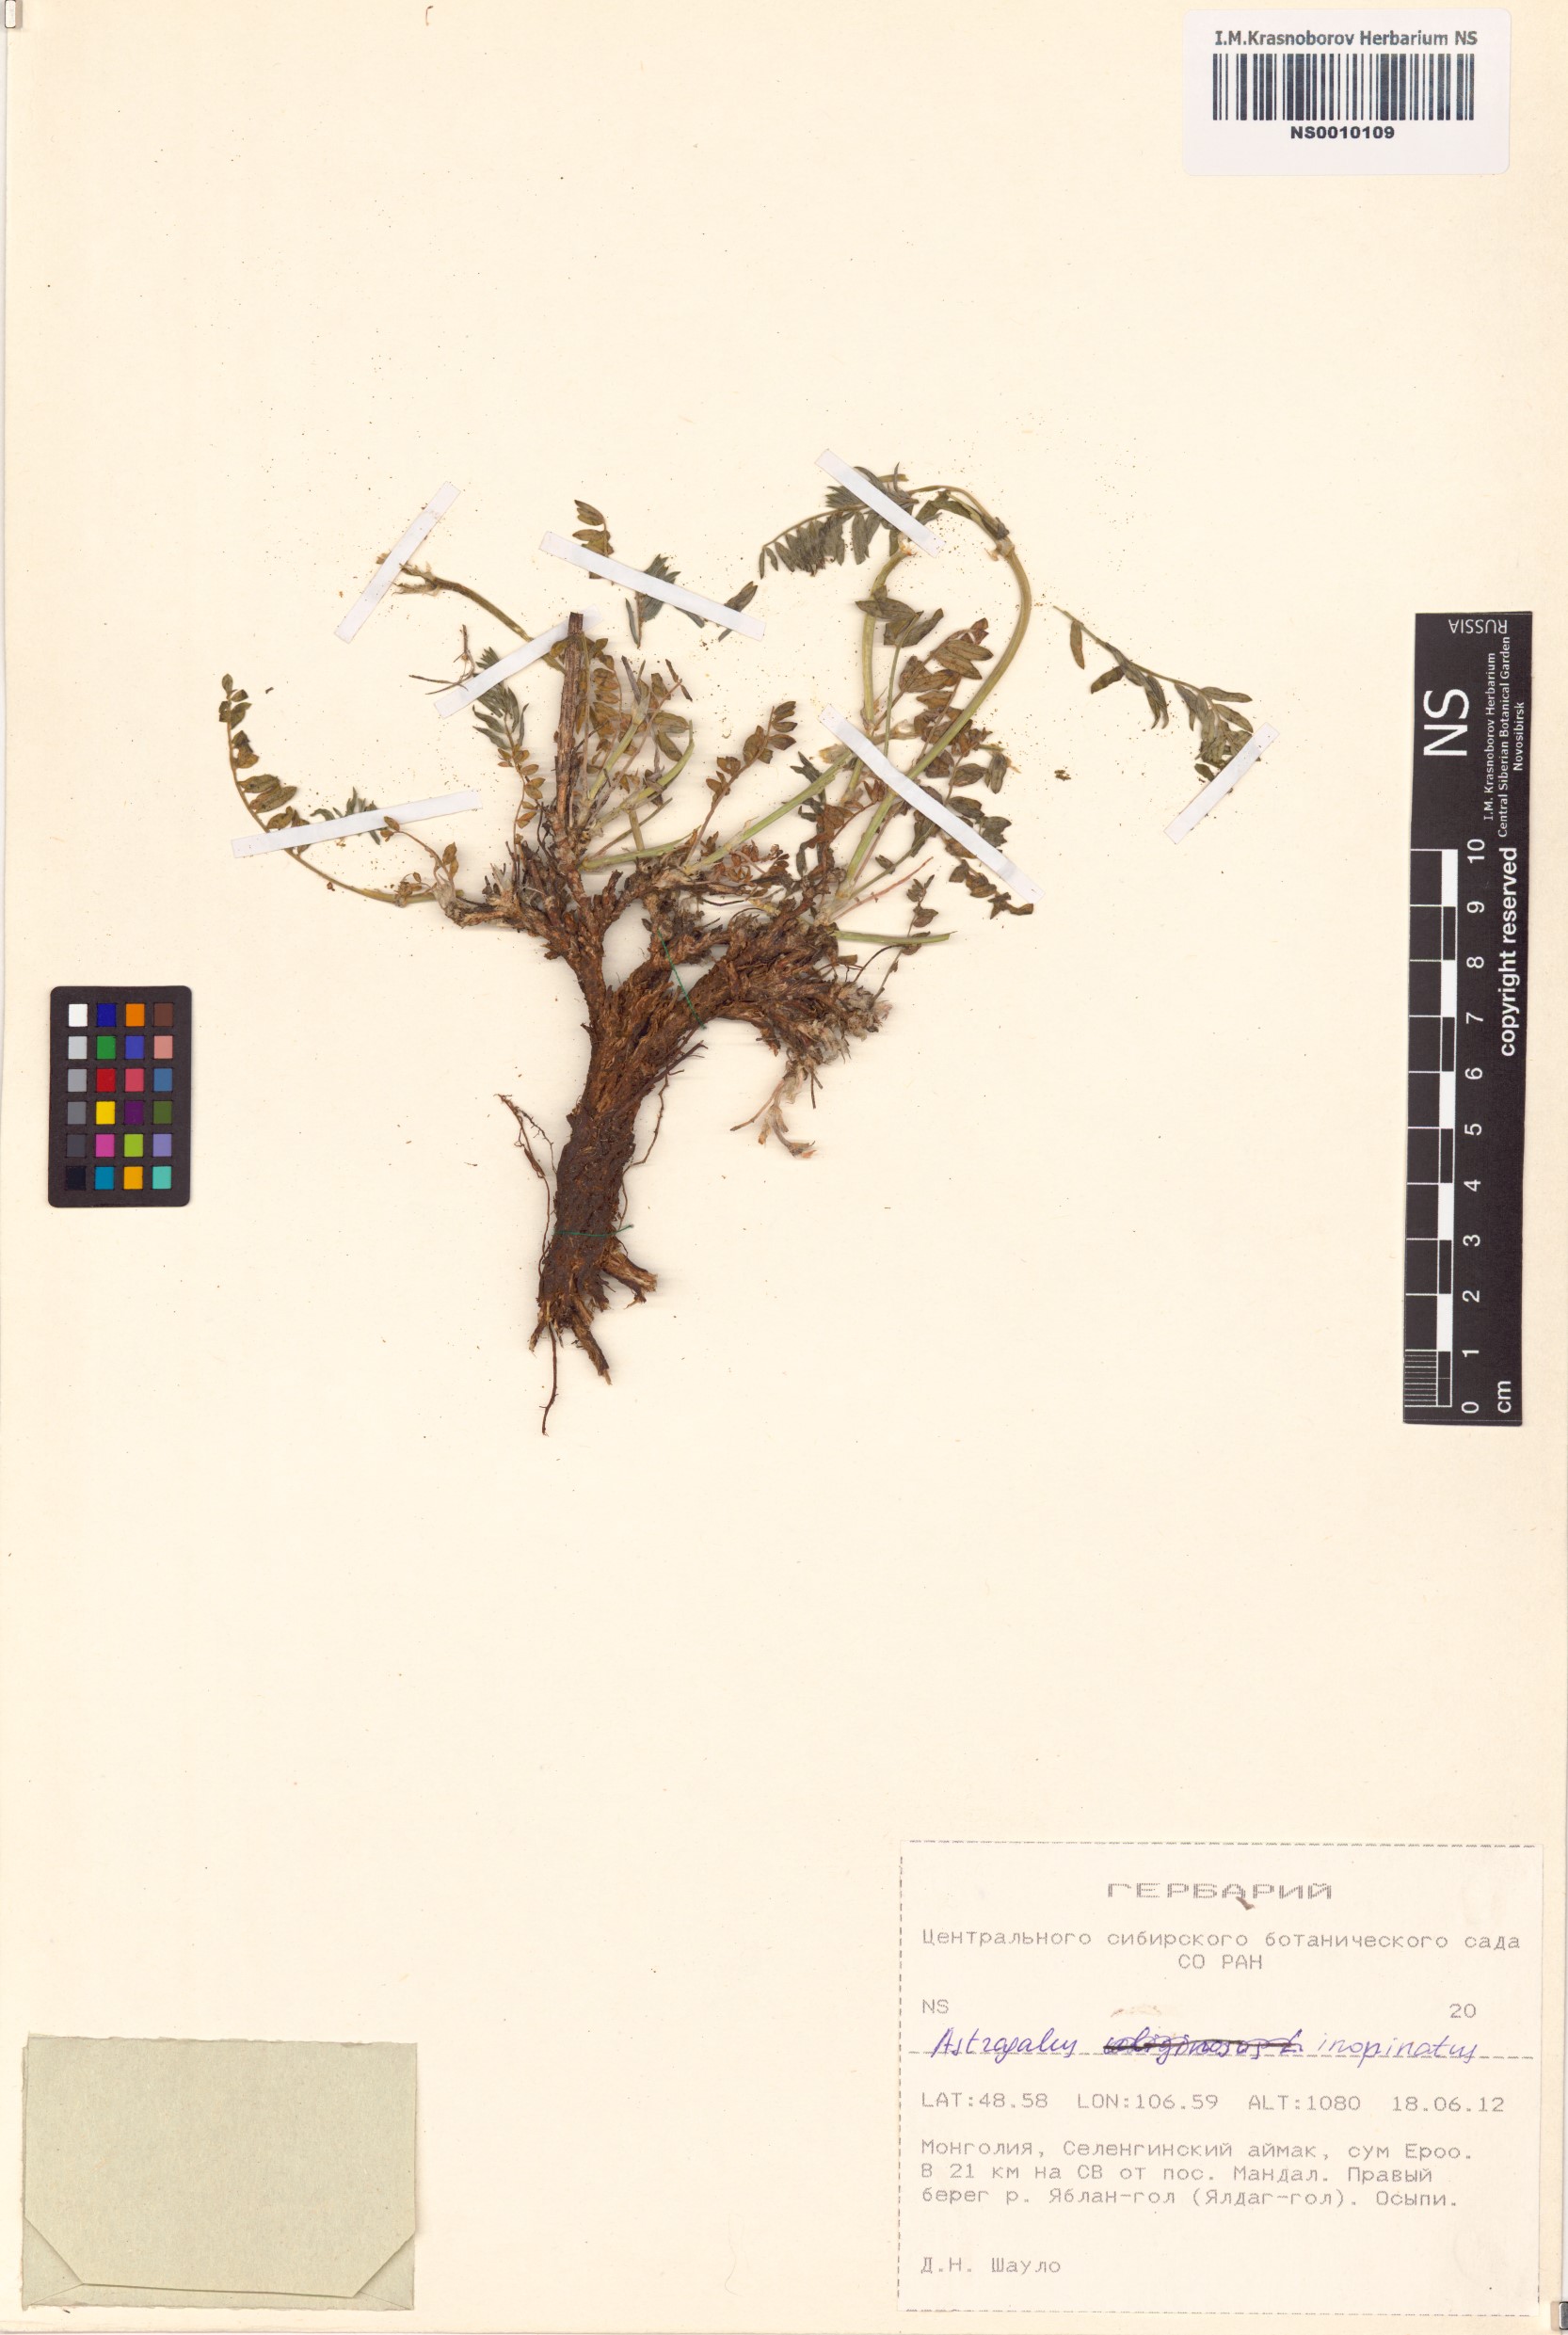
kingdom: Plantae
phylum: Tracheophyta
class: Magnoliopsida
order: Fabales
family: Fabaceae
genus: Astragalus
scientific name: Astragalus laxmannii
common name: Laxmann's milk-vetch
